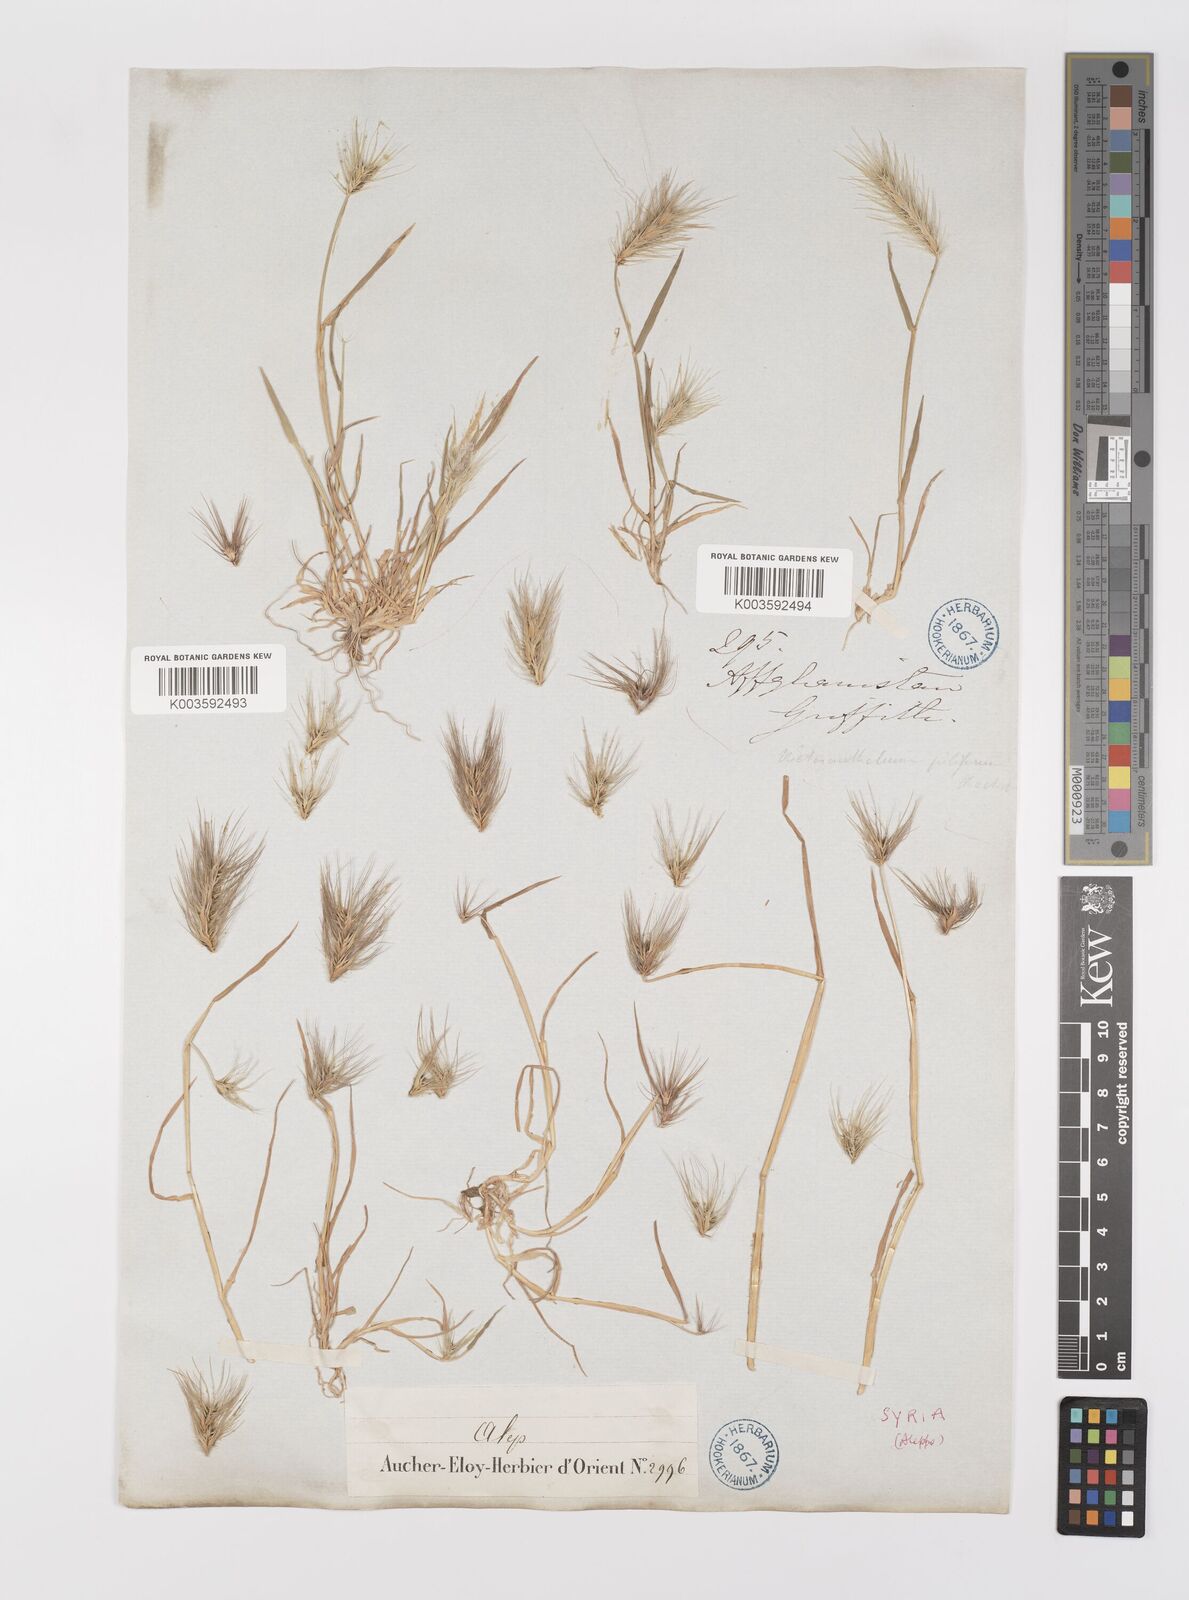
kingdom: Plantae
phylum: Tracheophyta
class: Liliopsida
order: Poales
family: Poaceae
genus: Heteranthelium
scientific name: Heteranthelium piliferum
